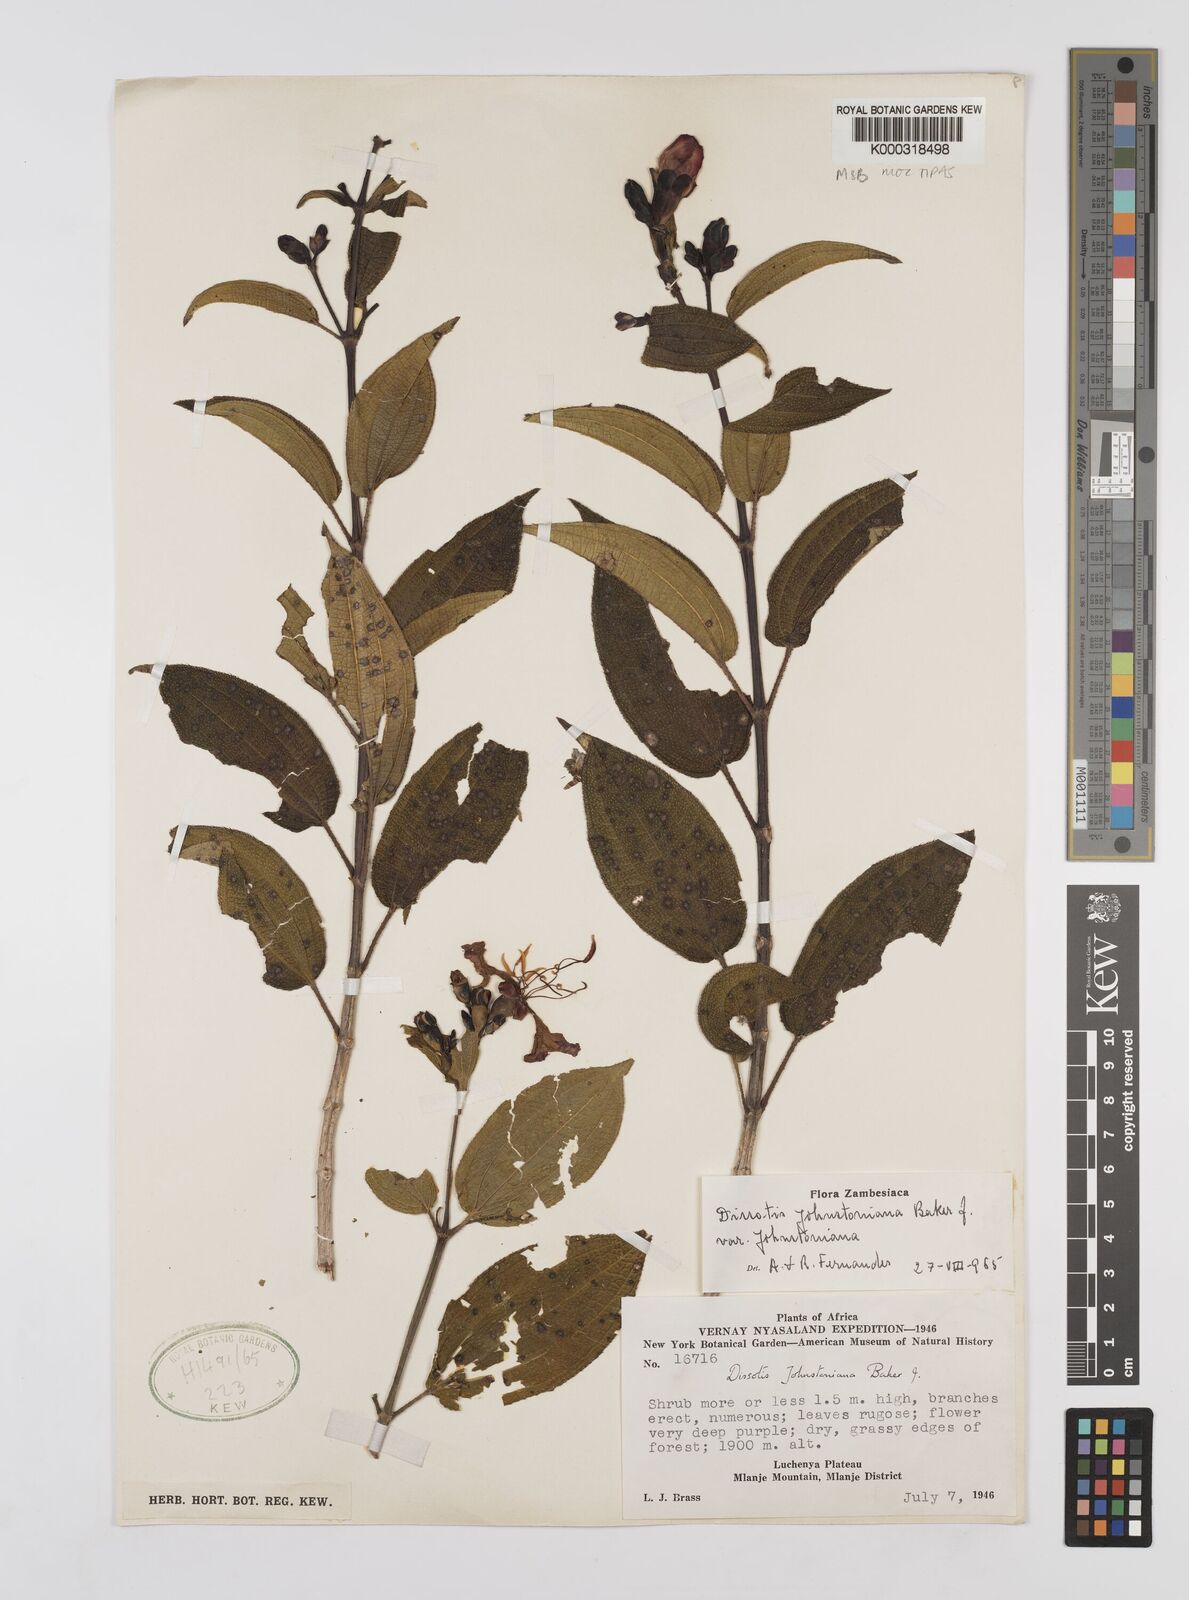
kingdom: Plantae
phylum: Tracheophyta
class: Magnoliopsida
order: Myrtales
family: Melastomataceae
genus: Dissotidendron
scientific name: Dissotidendron johnstonianum
